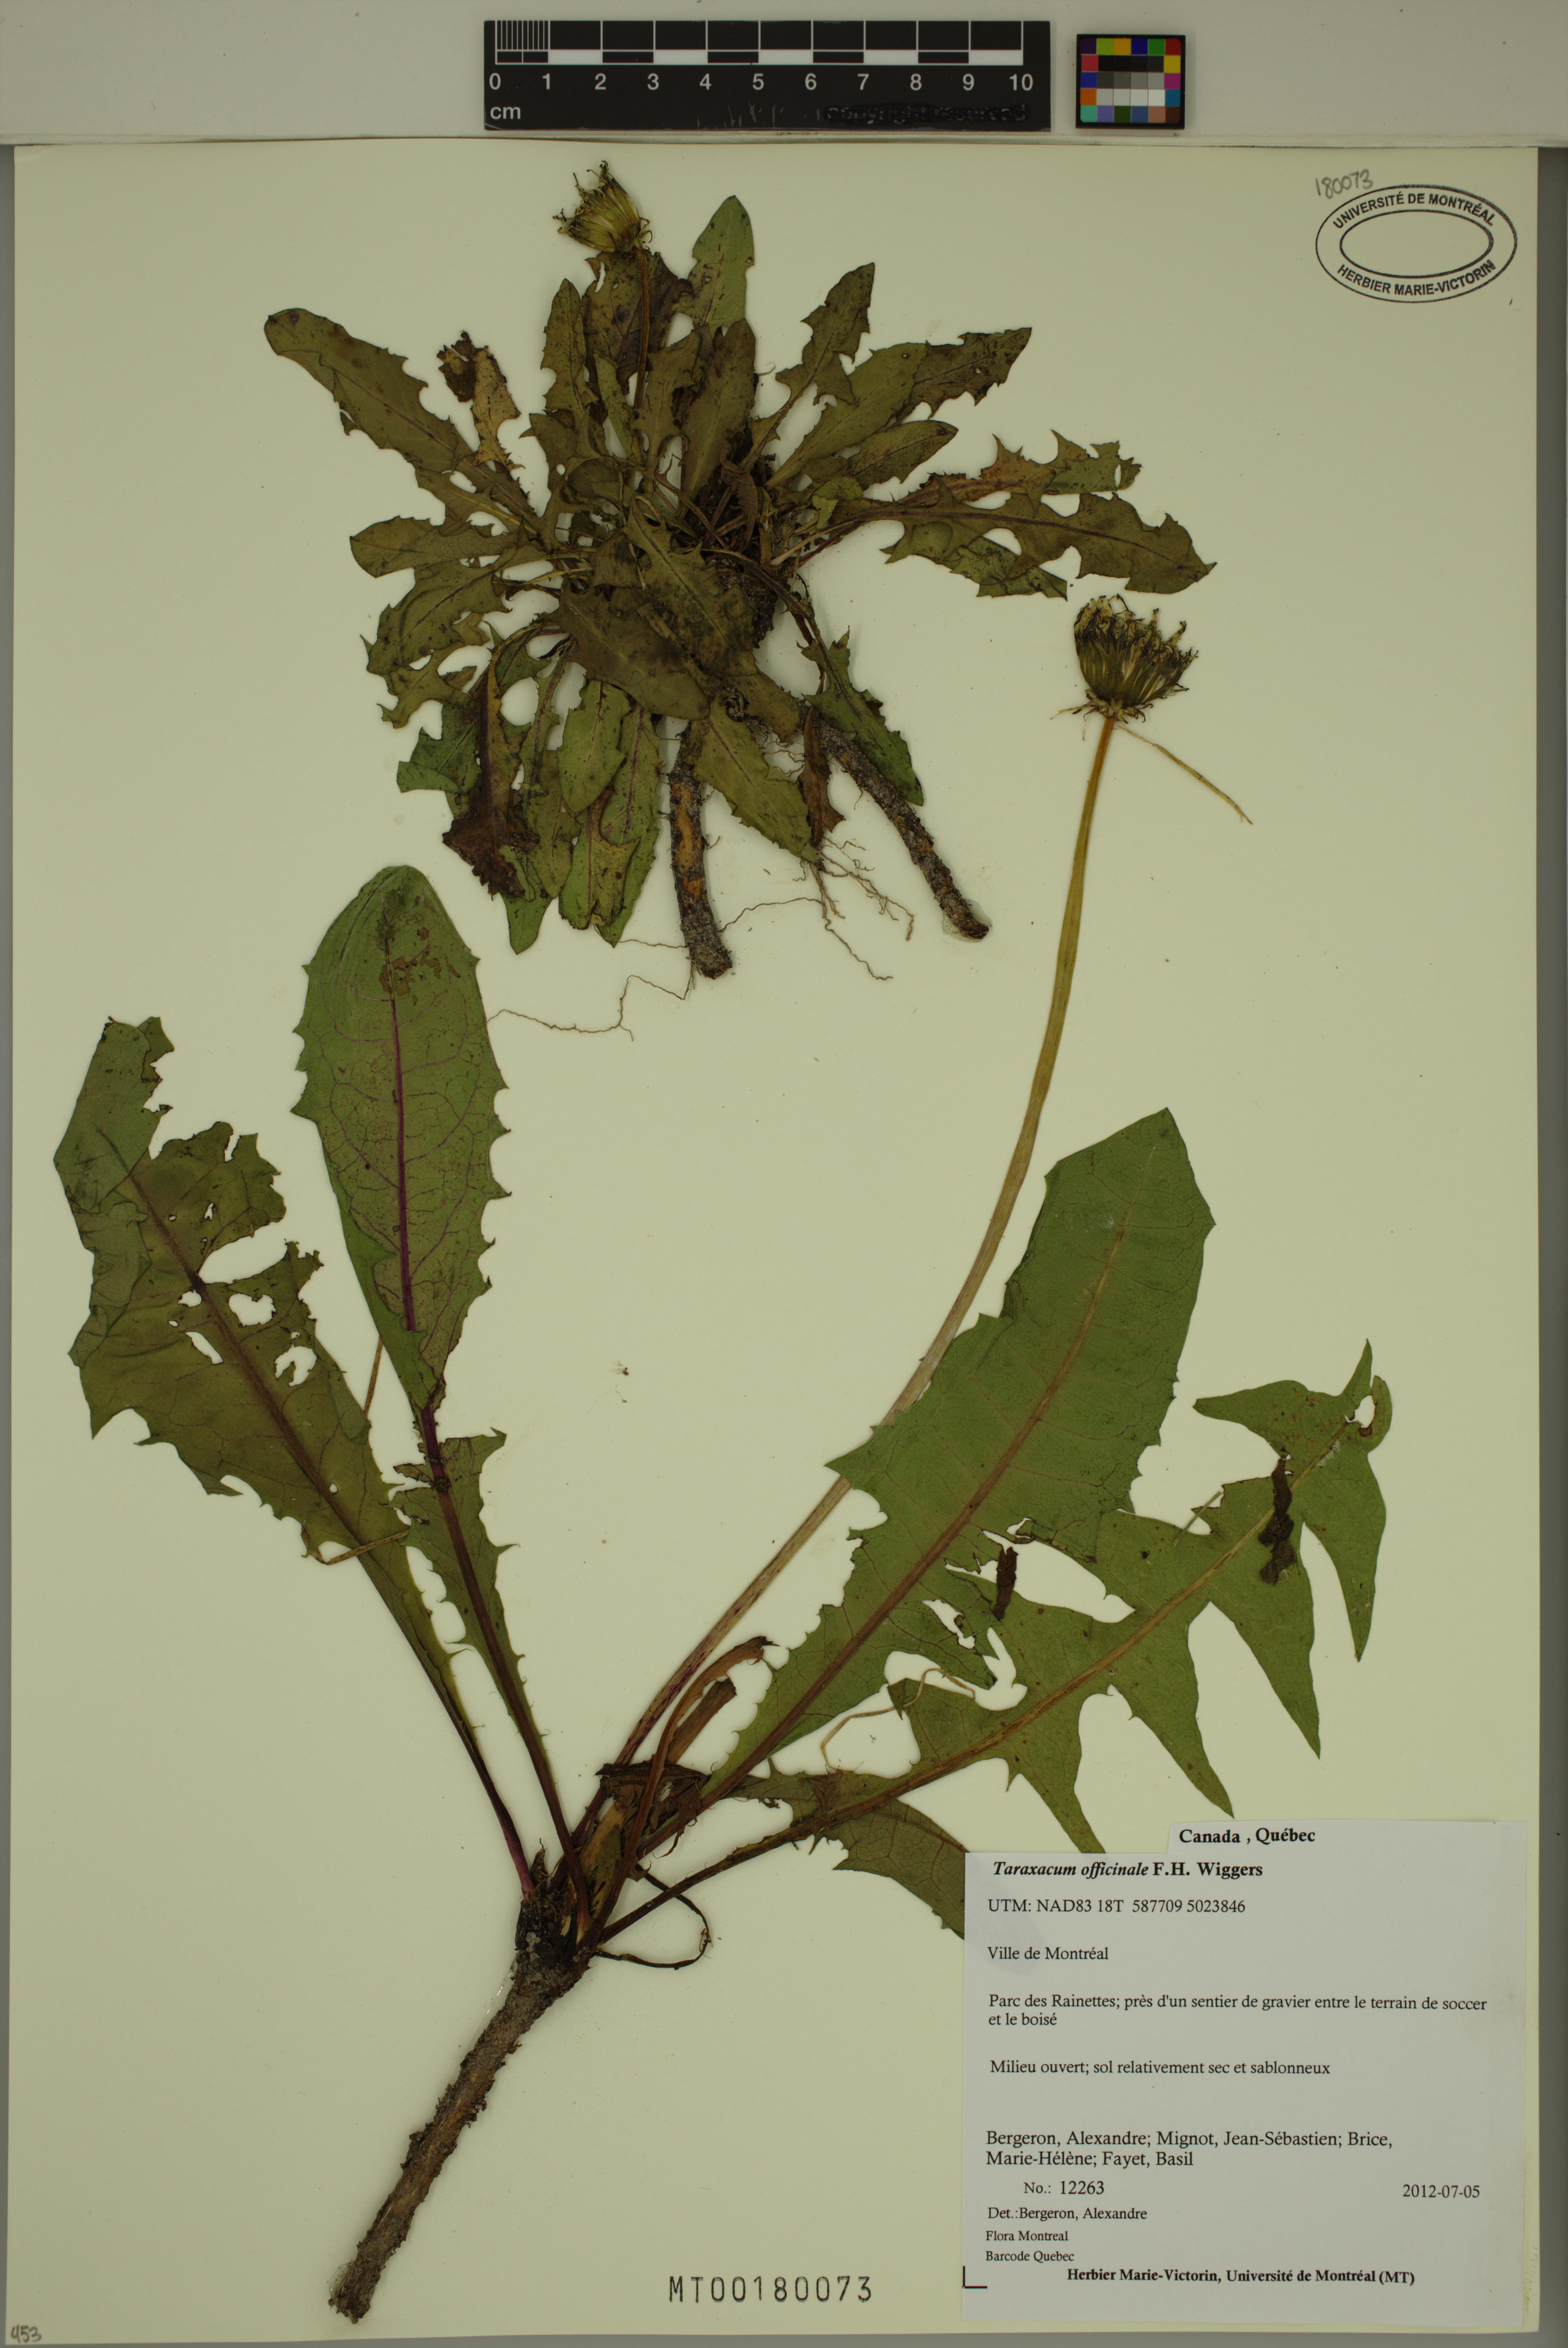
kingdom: Plantae
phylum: Tracheophyta
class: Magnoliopsida
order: Asterales
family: Asteraceae
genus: Taraxacum
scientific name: Taraxacum officinale
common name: Common dandelion
